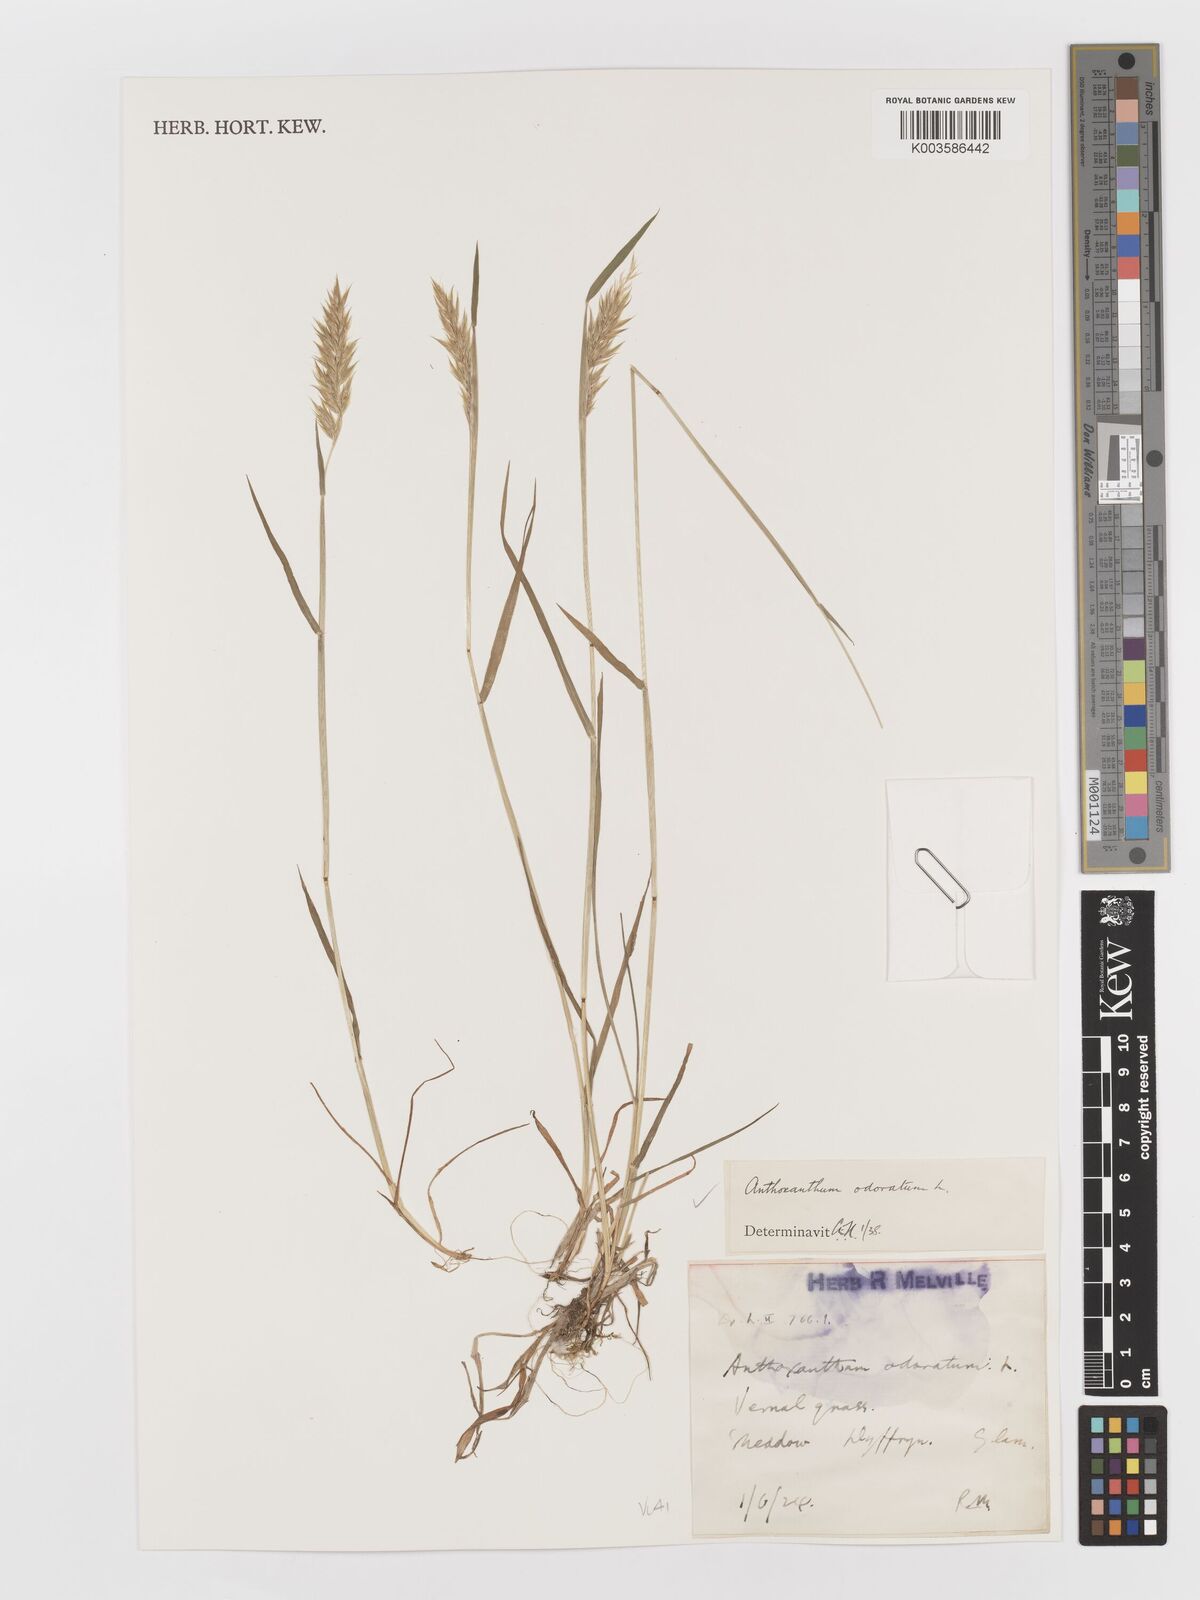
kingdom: Plantae
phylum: Tracheophyta
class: Liliopsida
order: Poales
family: Poaceae
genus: Anthoxanthum
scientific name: Anthoxanthum odoratum
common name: Sweet vernalgrass
